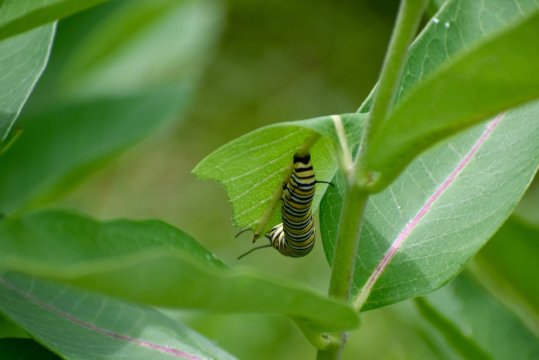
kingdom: Animalia
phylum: Arthropoda
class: Insecta
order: Lepidoptera
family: Nymphalidae
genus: Danaus
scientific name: Danaus plexippus
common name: Monarch
